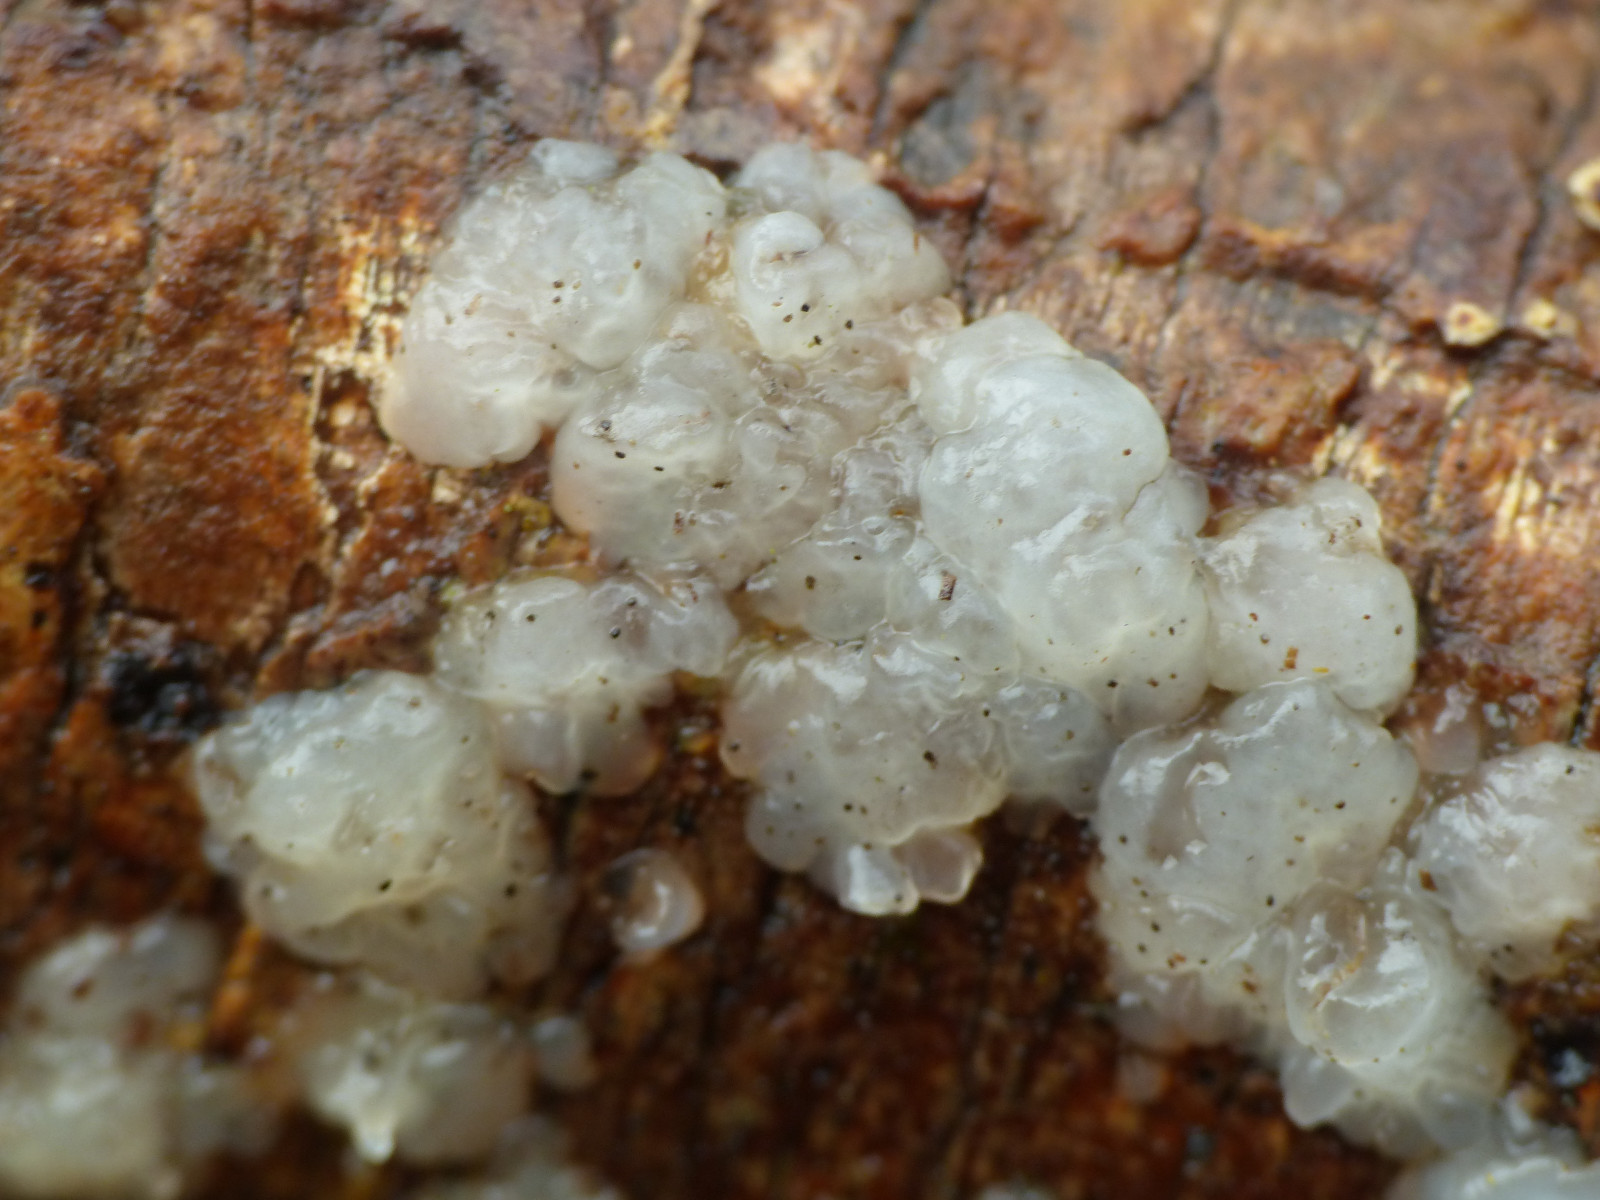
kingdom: Fungi
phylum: Basidiomycota
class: Agaricomycetes
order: Auriculariales
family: Auriculariaceae
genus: Exidia
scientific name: Exidia thuretiana
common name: hvidlig bævretop
